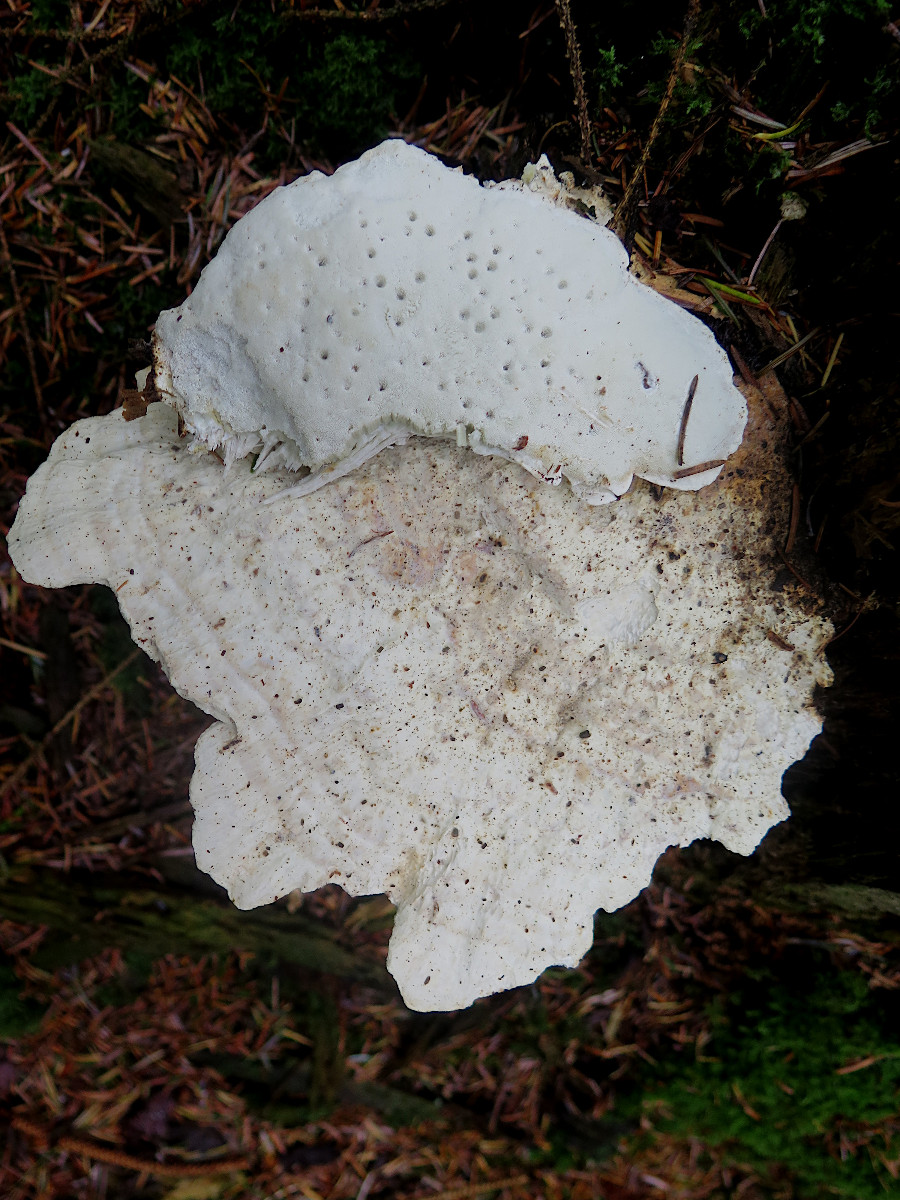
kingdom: Fungi
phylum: Basidiomycota
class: Agaricomycetes
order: Polyporales
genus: Calcipostia
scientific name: Calcipostia guttulata
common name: dråbe-kødporesvamp
